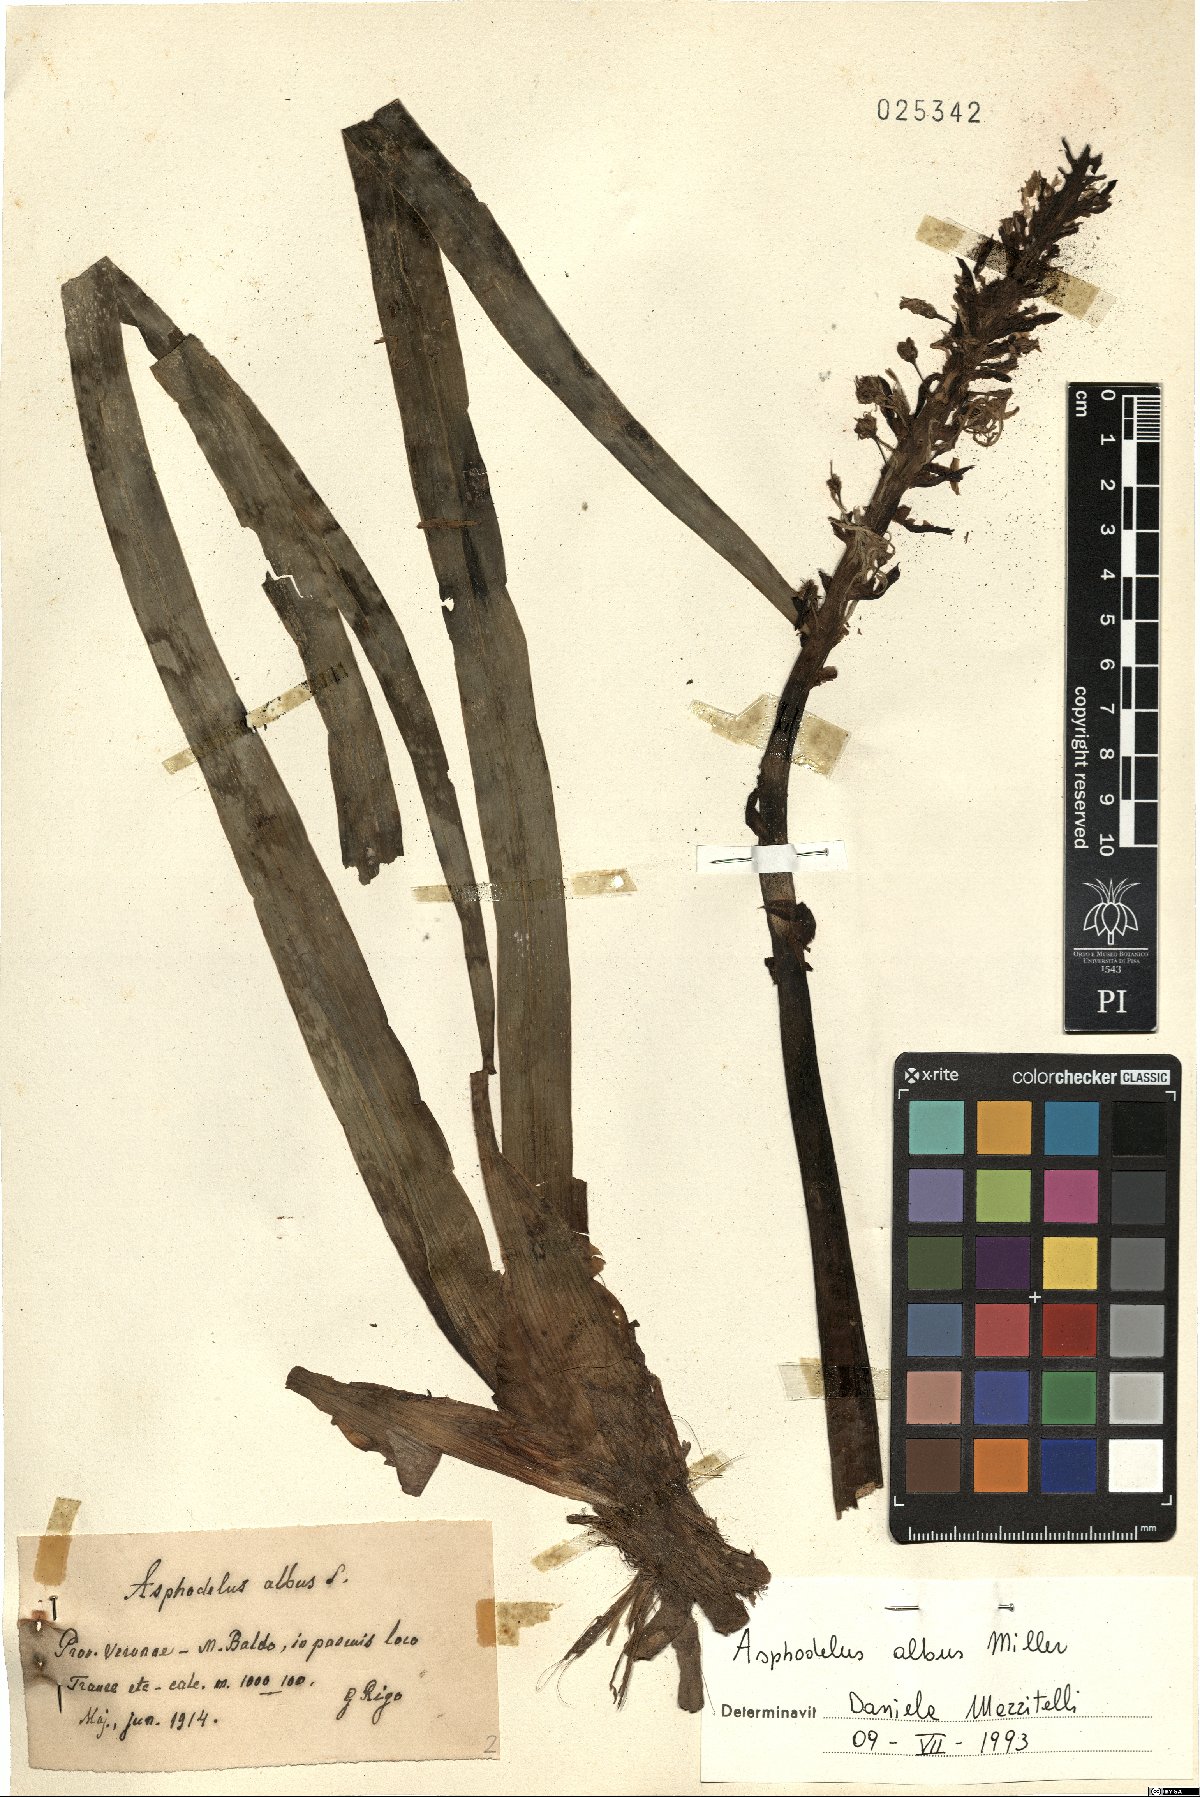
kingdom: Plantae
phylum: Tracheophyta
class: Liliopsida
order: Asparagales
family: Asphodelaceae
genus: Asphodelus
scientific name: Asphodelus albus
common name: White asphodel
